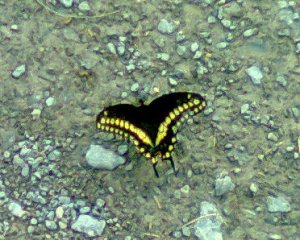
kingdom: Animalia
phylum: Arthropoda
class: Insecta
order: Lepidoptera
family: Papilionidae
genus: Papilio
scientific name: Papilio polyxenes
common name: Black Swallowtail
